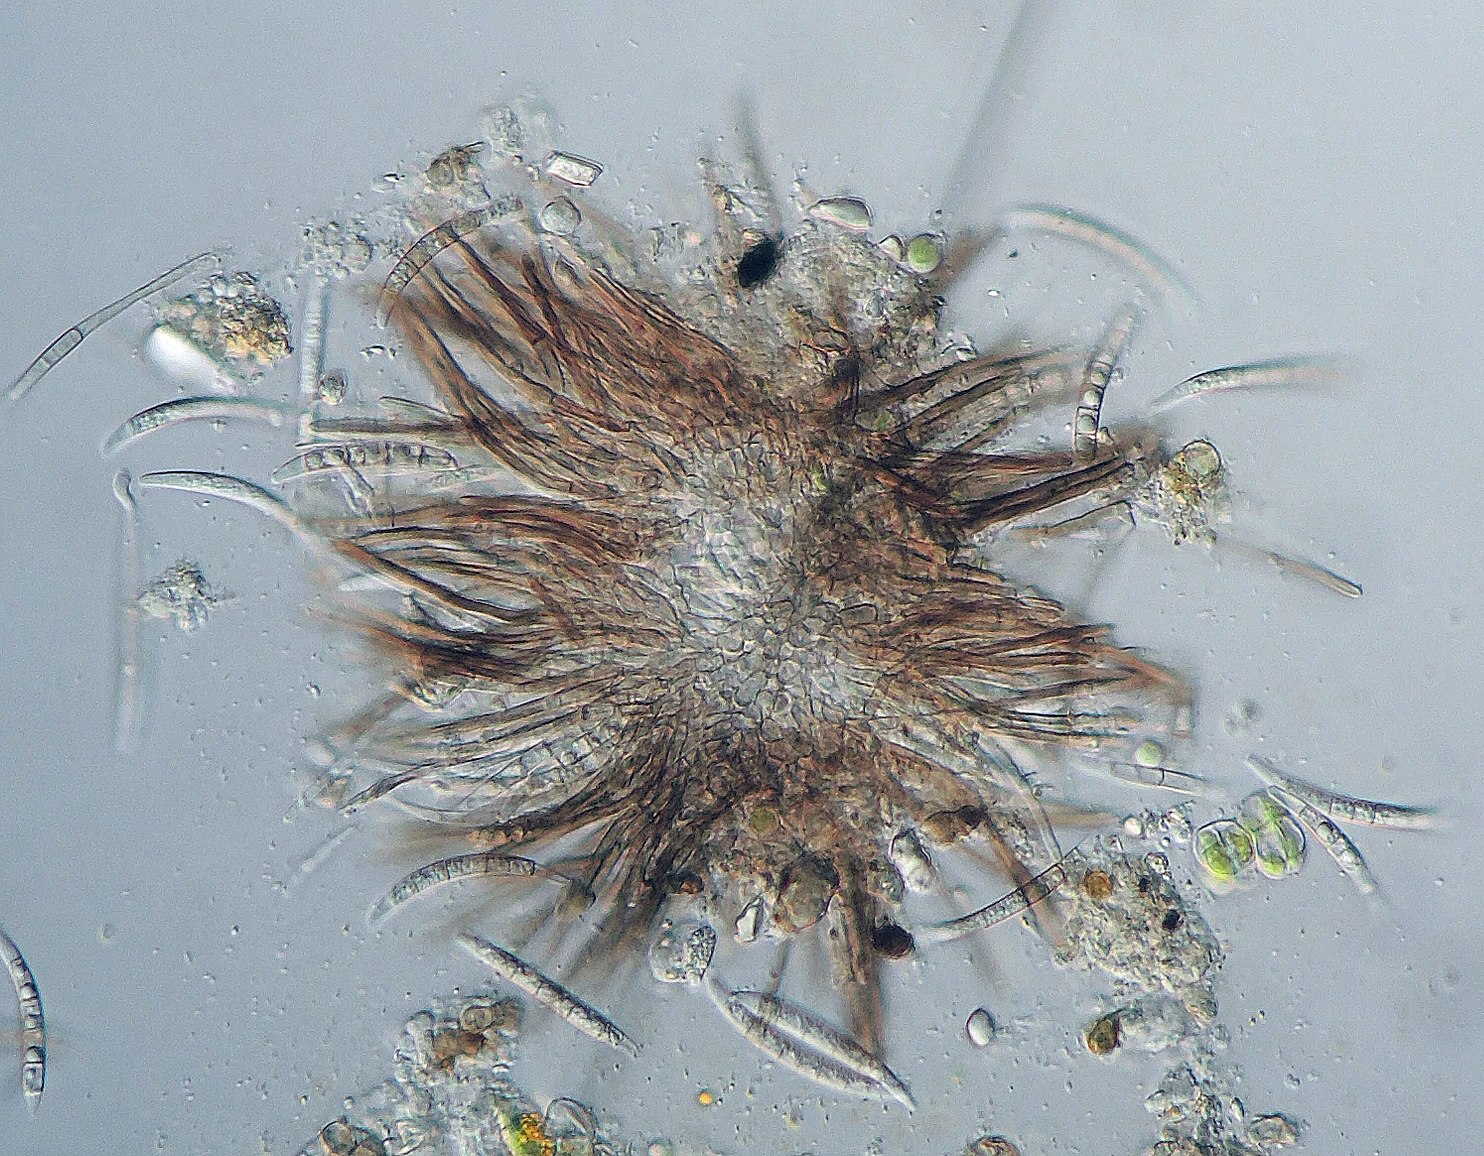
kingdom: Fungi
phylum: Ascomycota
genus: Excipularia
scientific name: Excipularia fusispora
